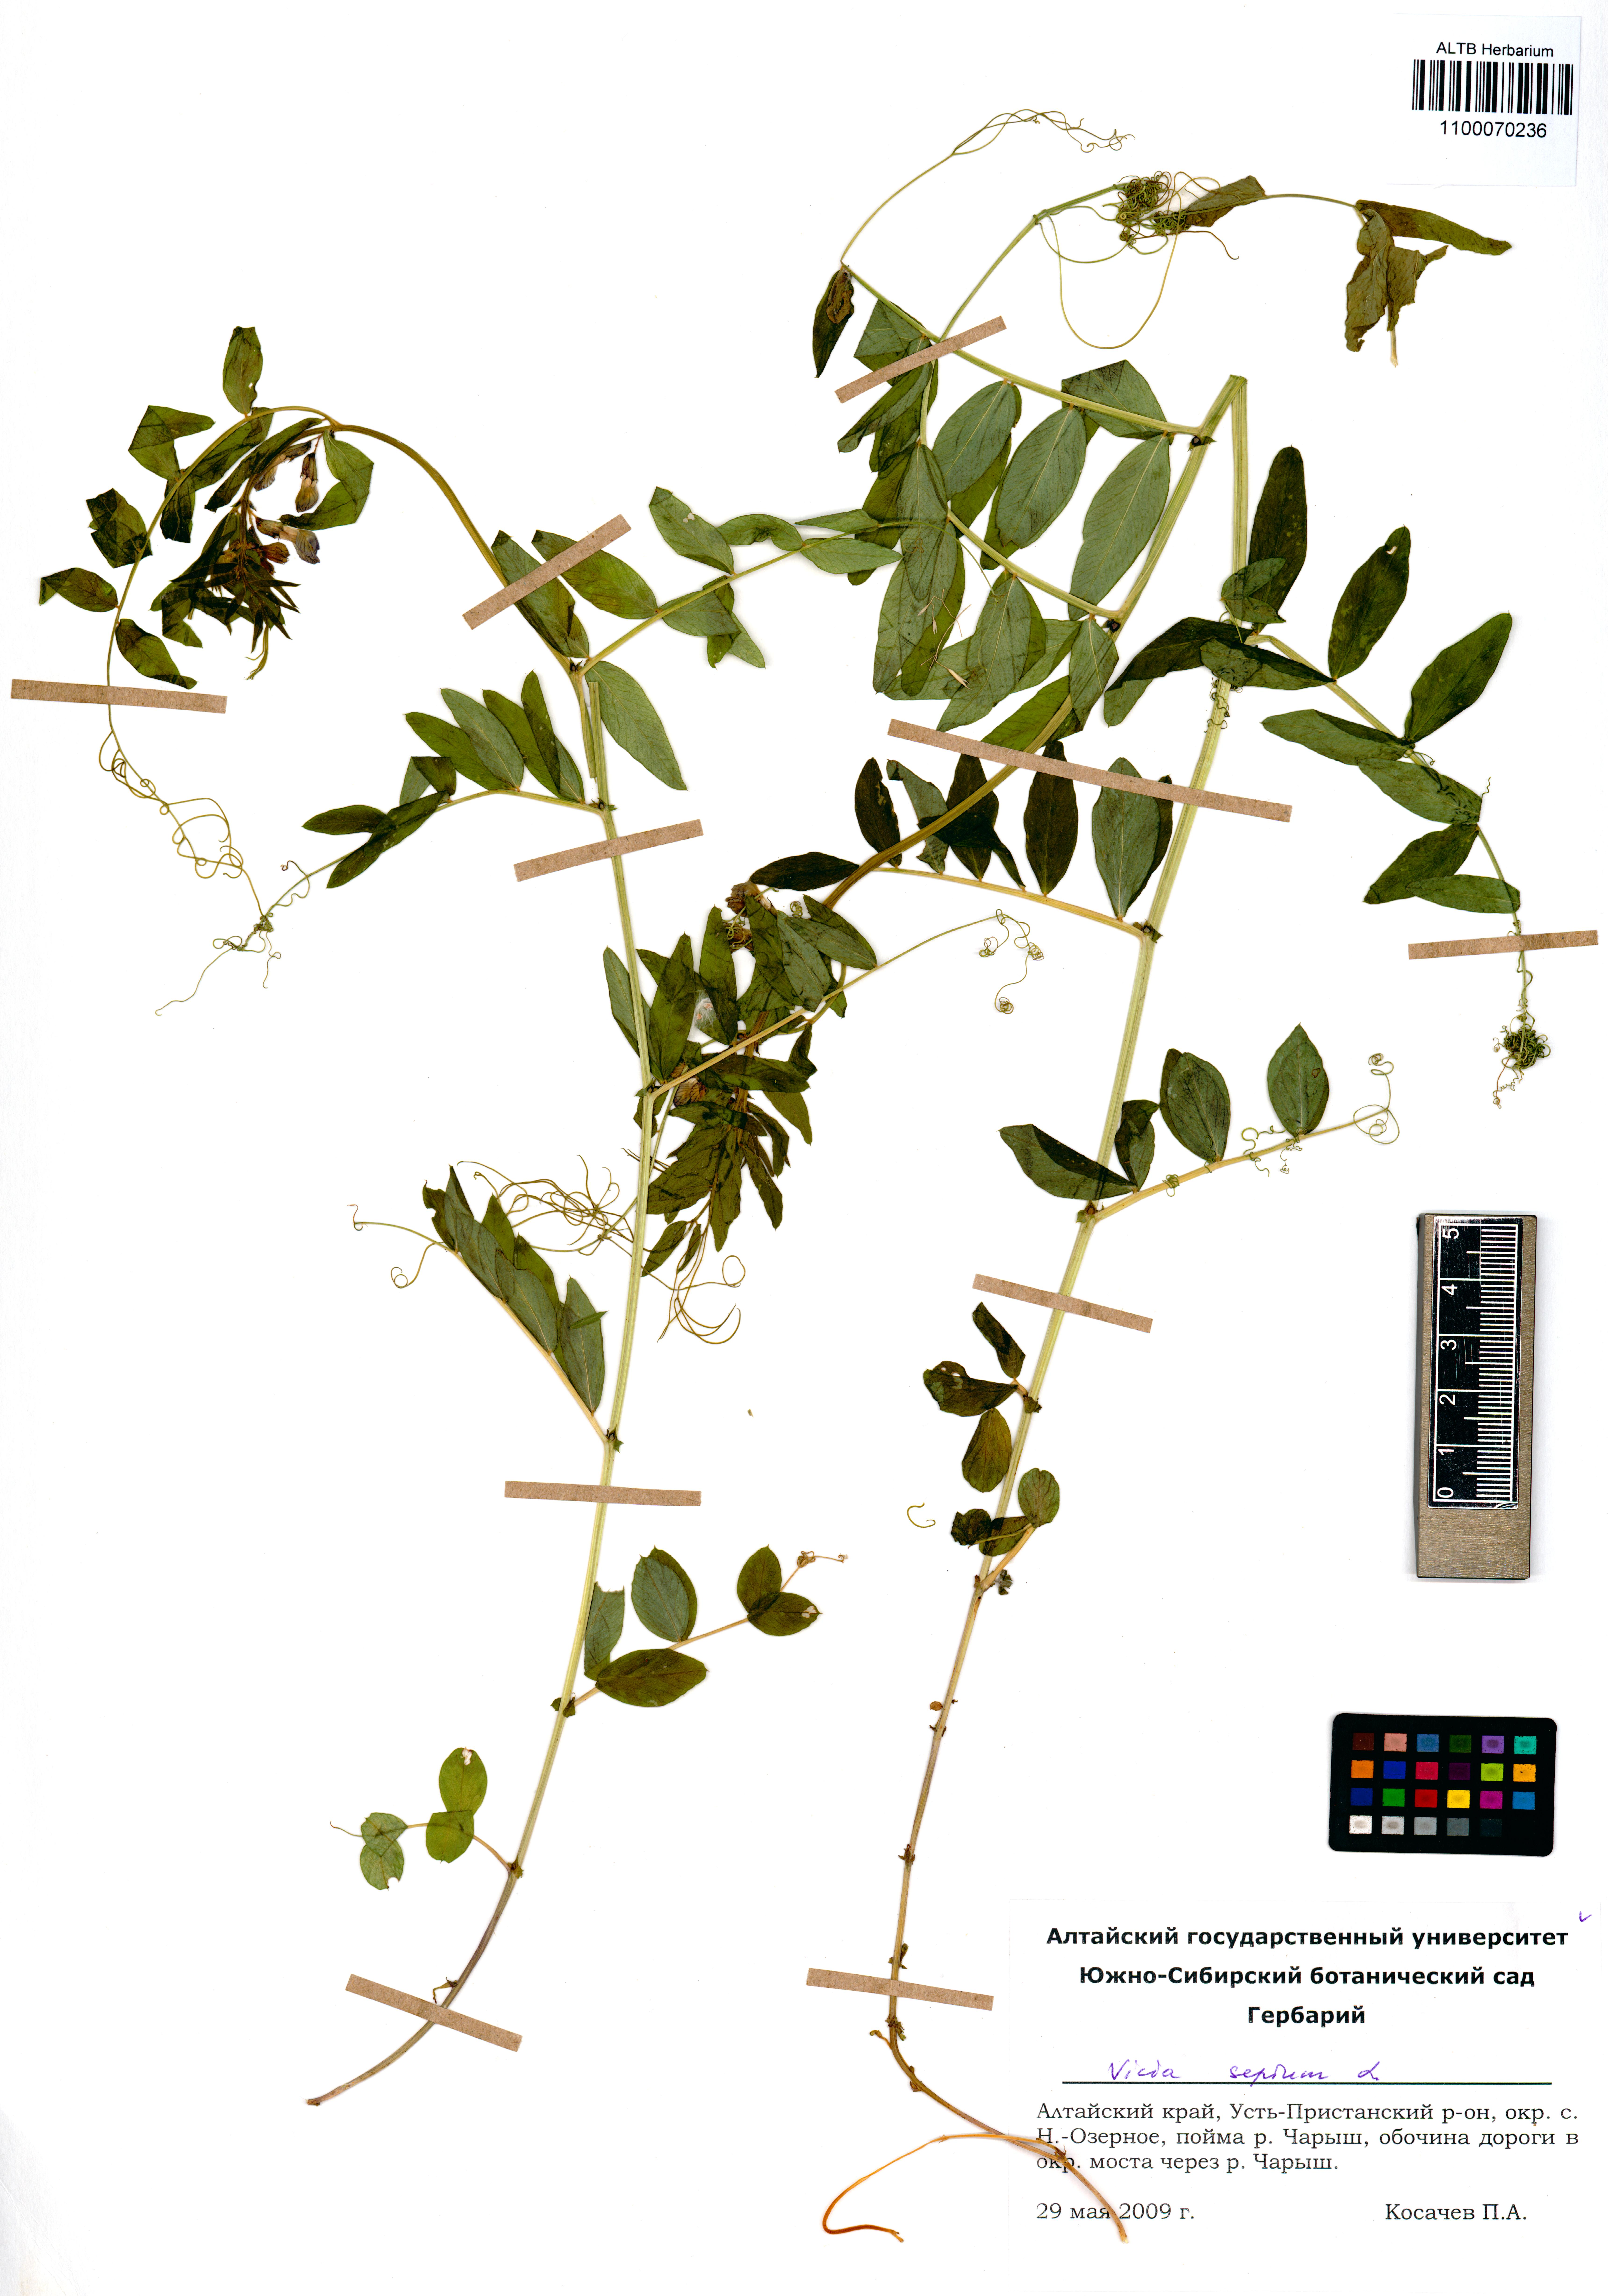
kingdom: Plantae
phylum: Tracheophyta
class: Magnoliopsida
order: Fabales
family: Fabaceae
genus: Vicia
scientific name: Vicia sepium
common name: Bush vetch
